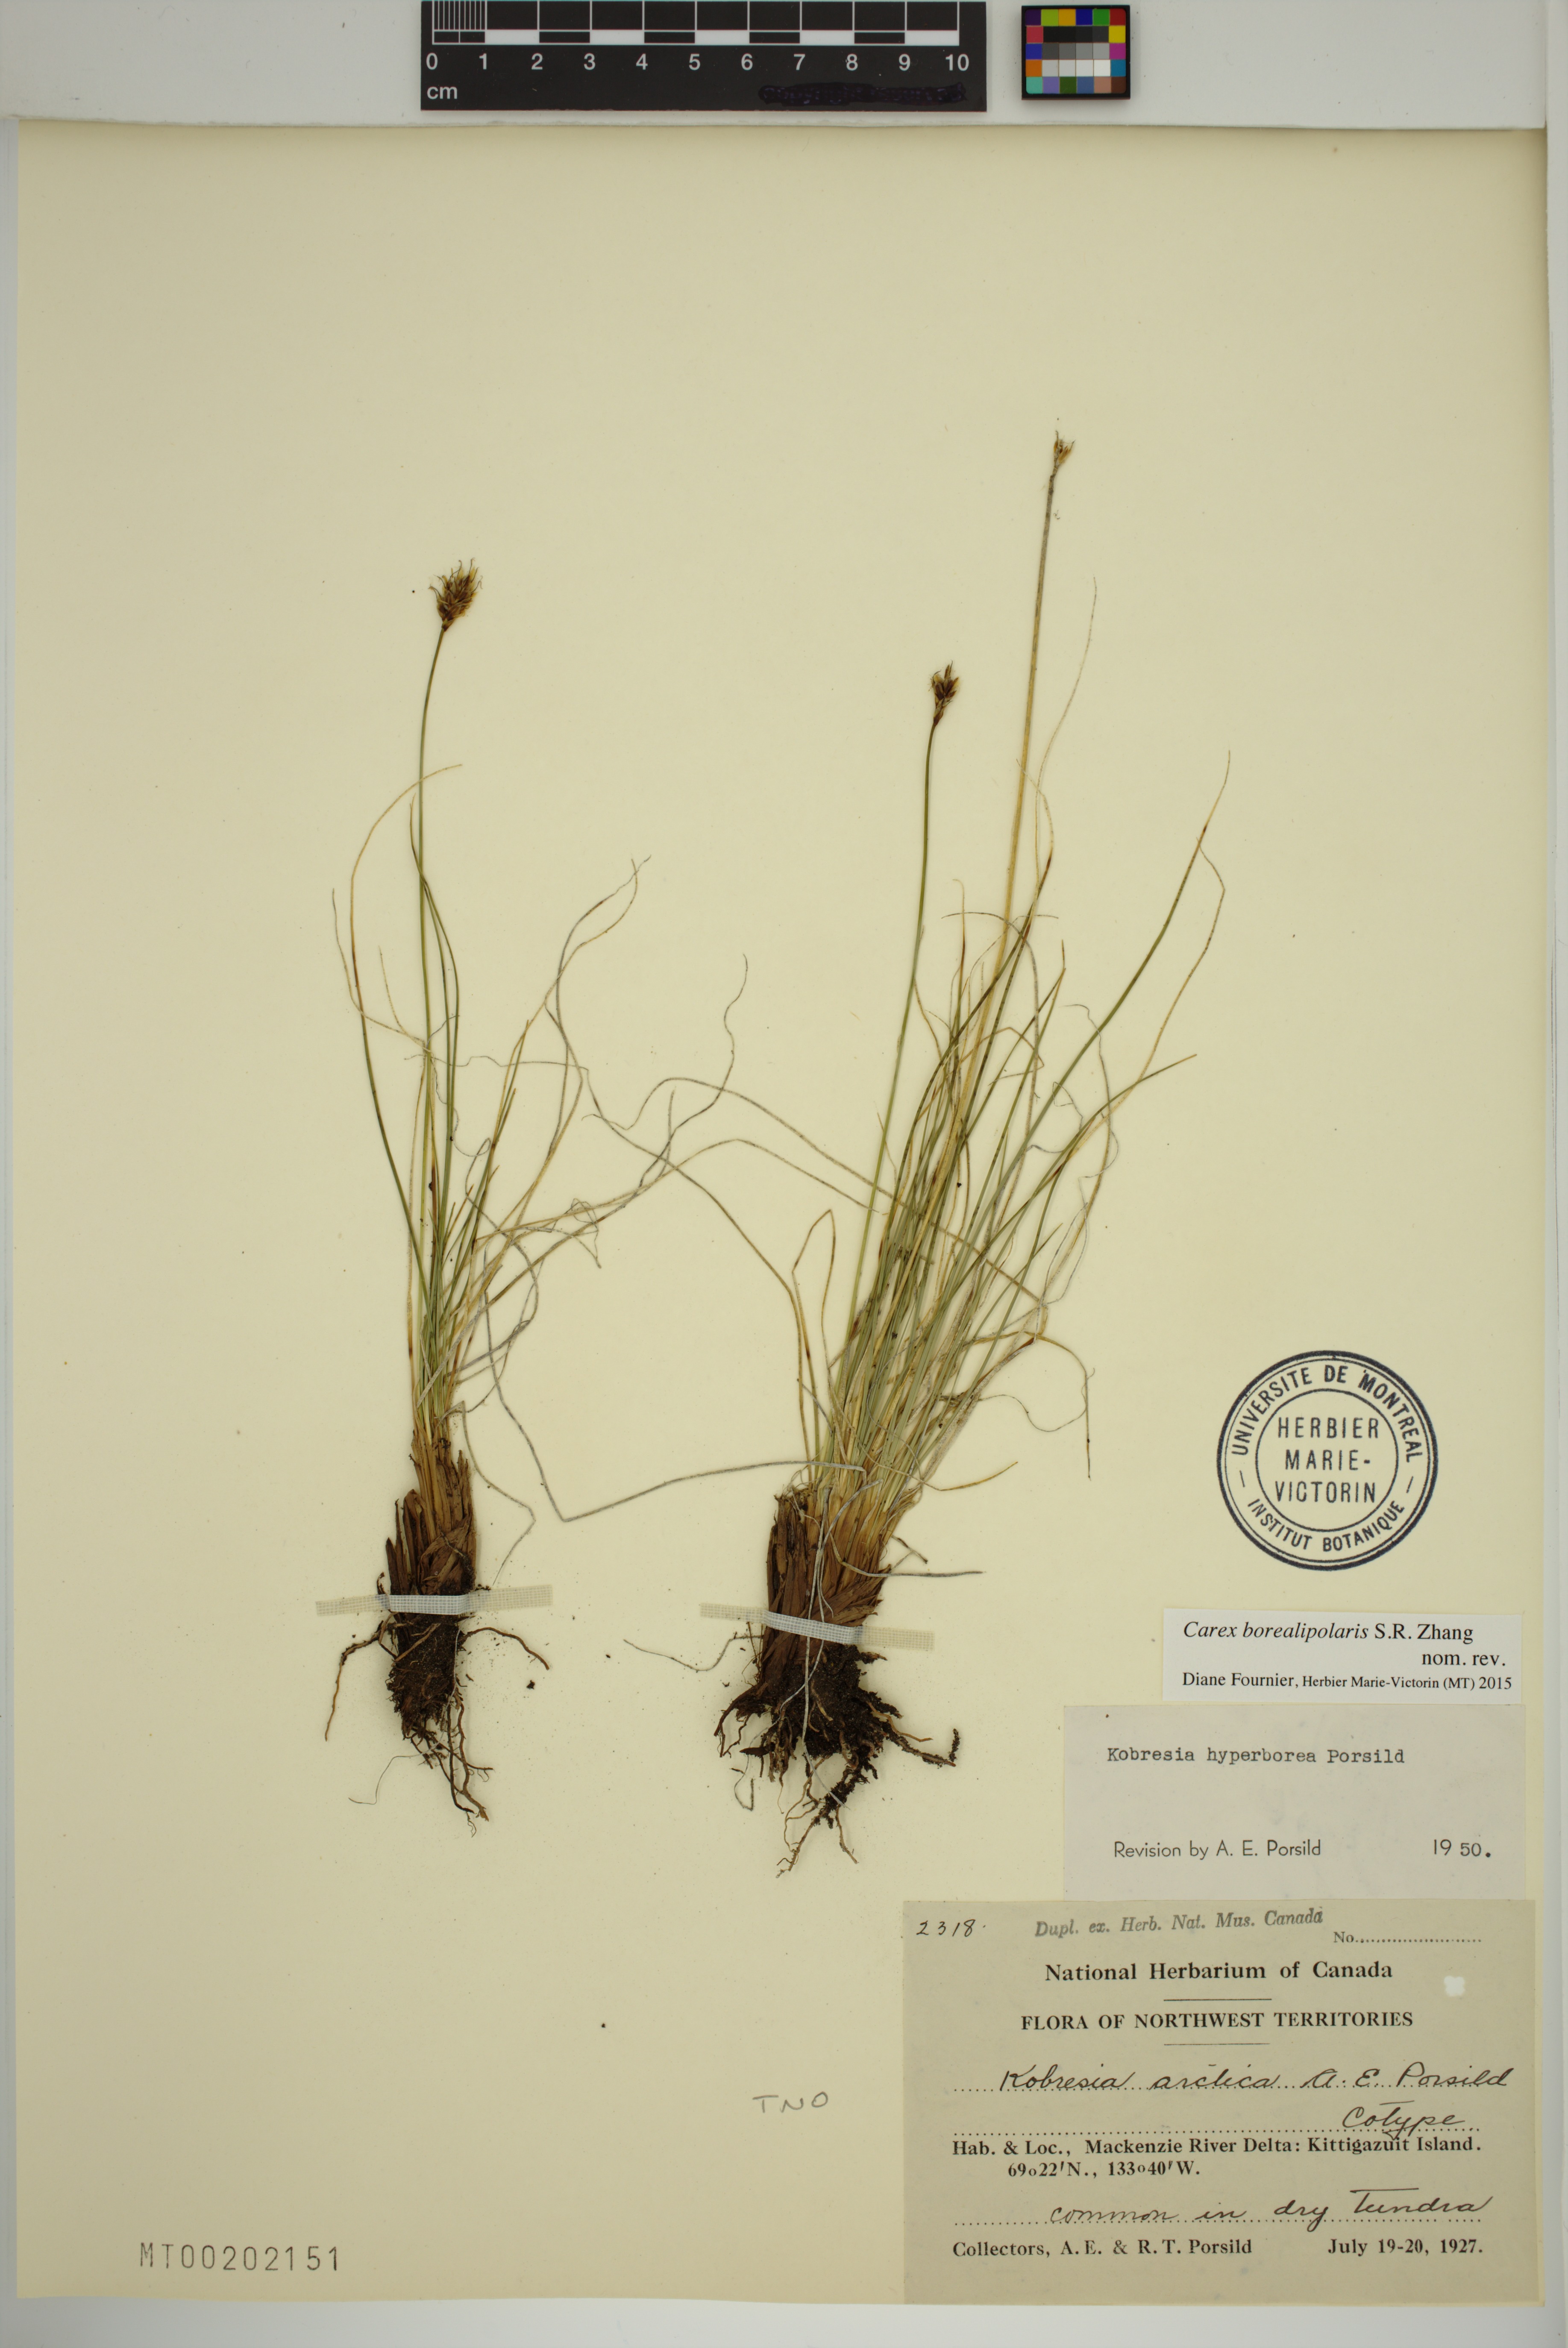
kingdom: Plantae
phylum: Tracheophyta
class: Liliopsida
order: Poales
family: Cyperaceae
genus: Carex
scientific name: Carex borealipolaris
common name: Siberian bog sedge
